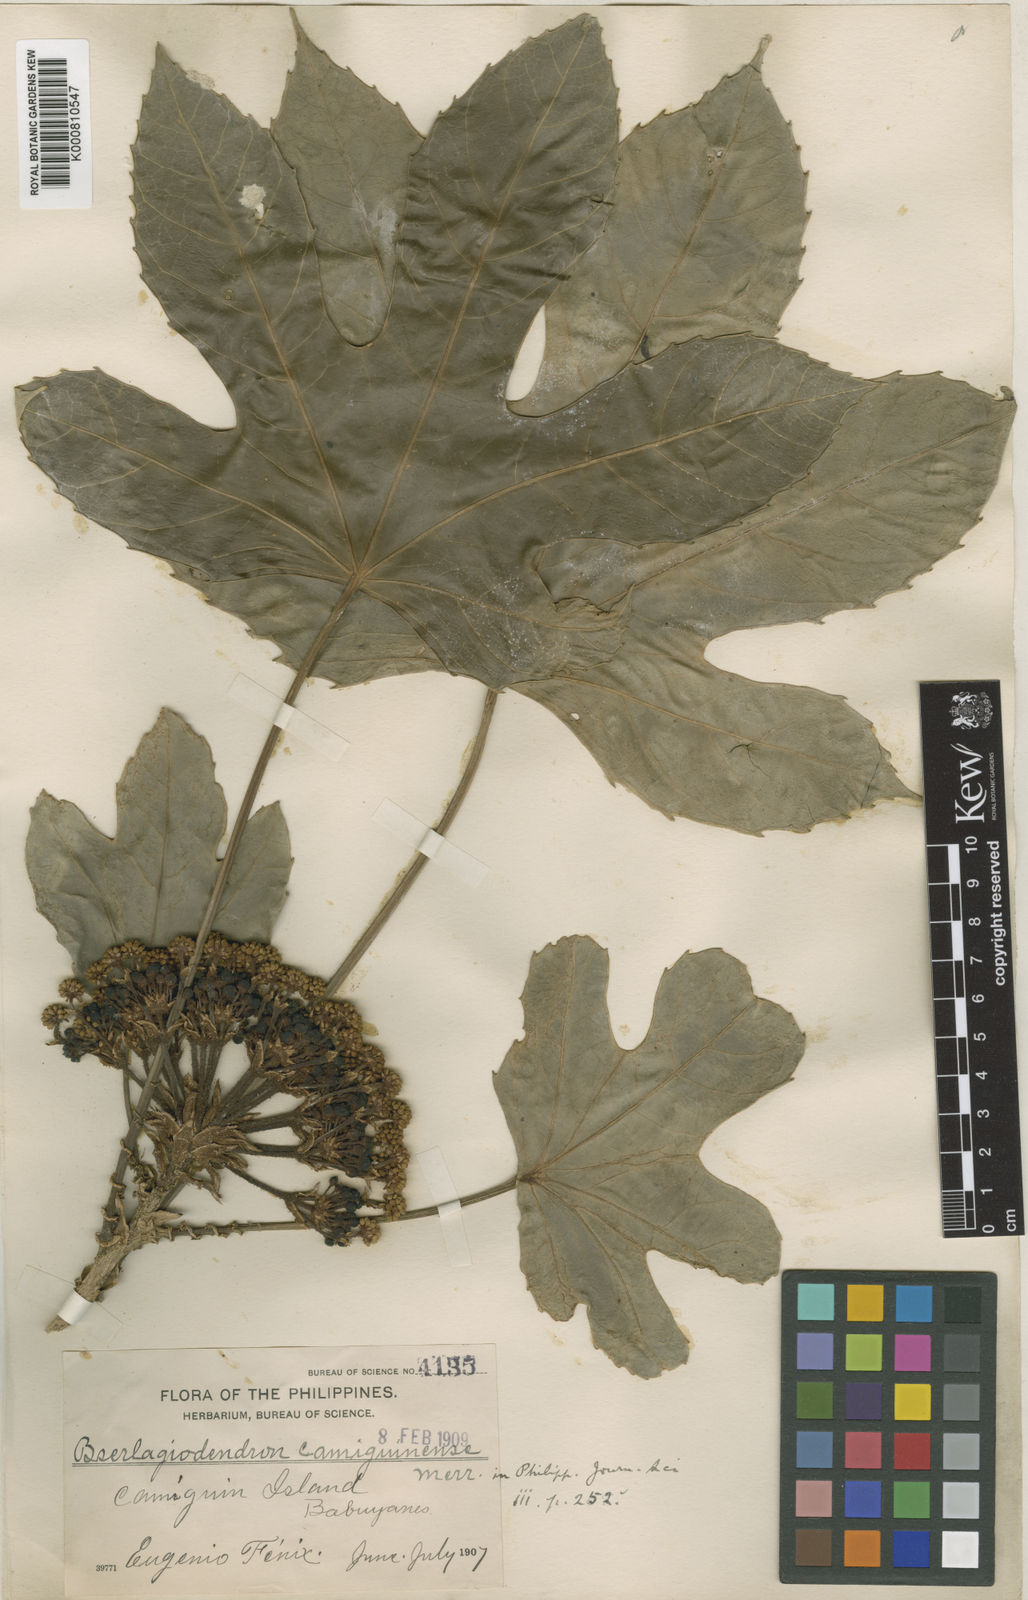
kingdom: Plantae
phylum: Tracheophyta
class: Magnoliopsida
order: Apiales
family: Araliaceae
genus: Osmoxylon
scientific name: Osmoxylon camiguinense
